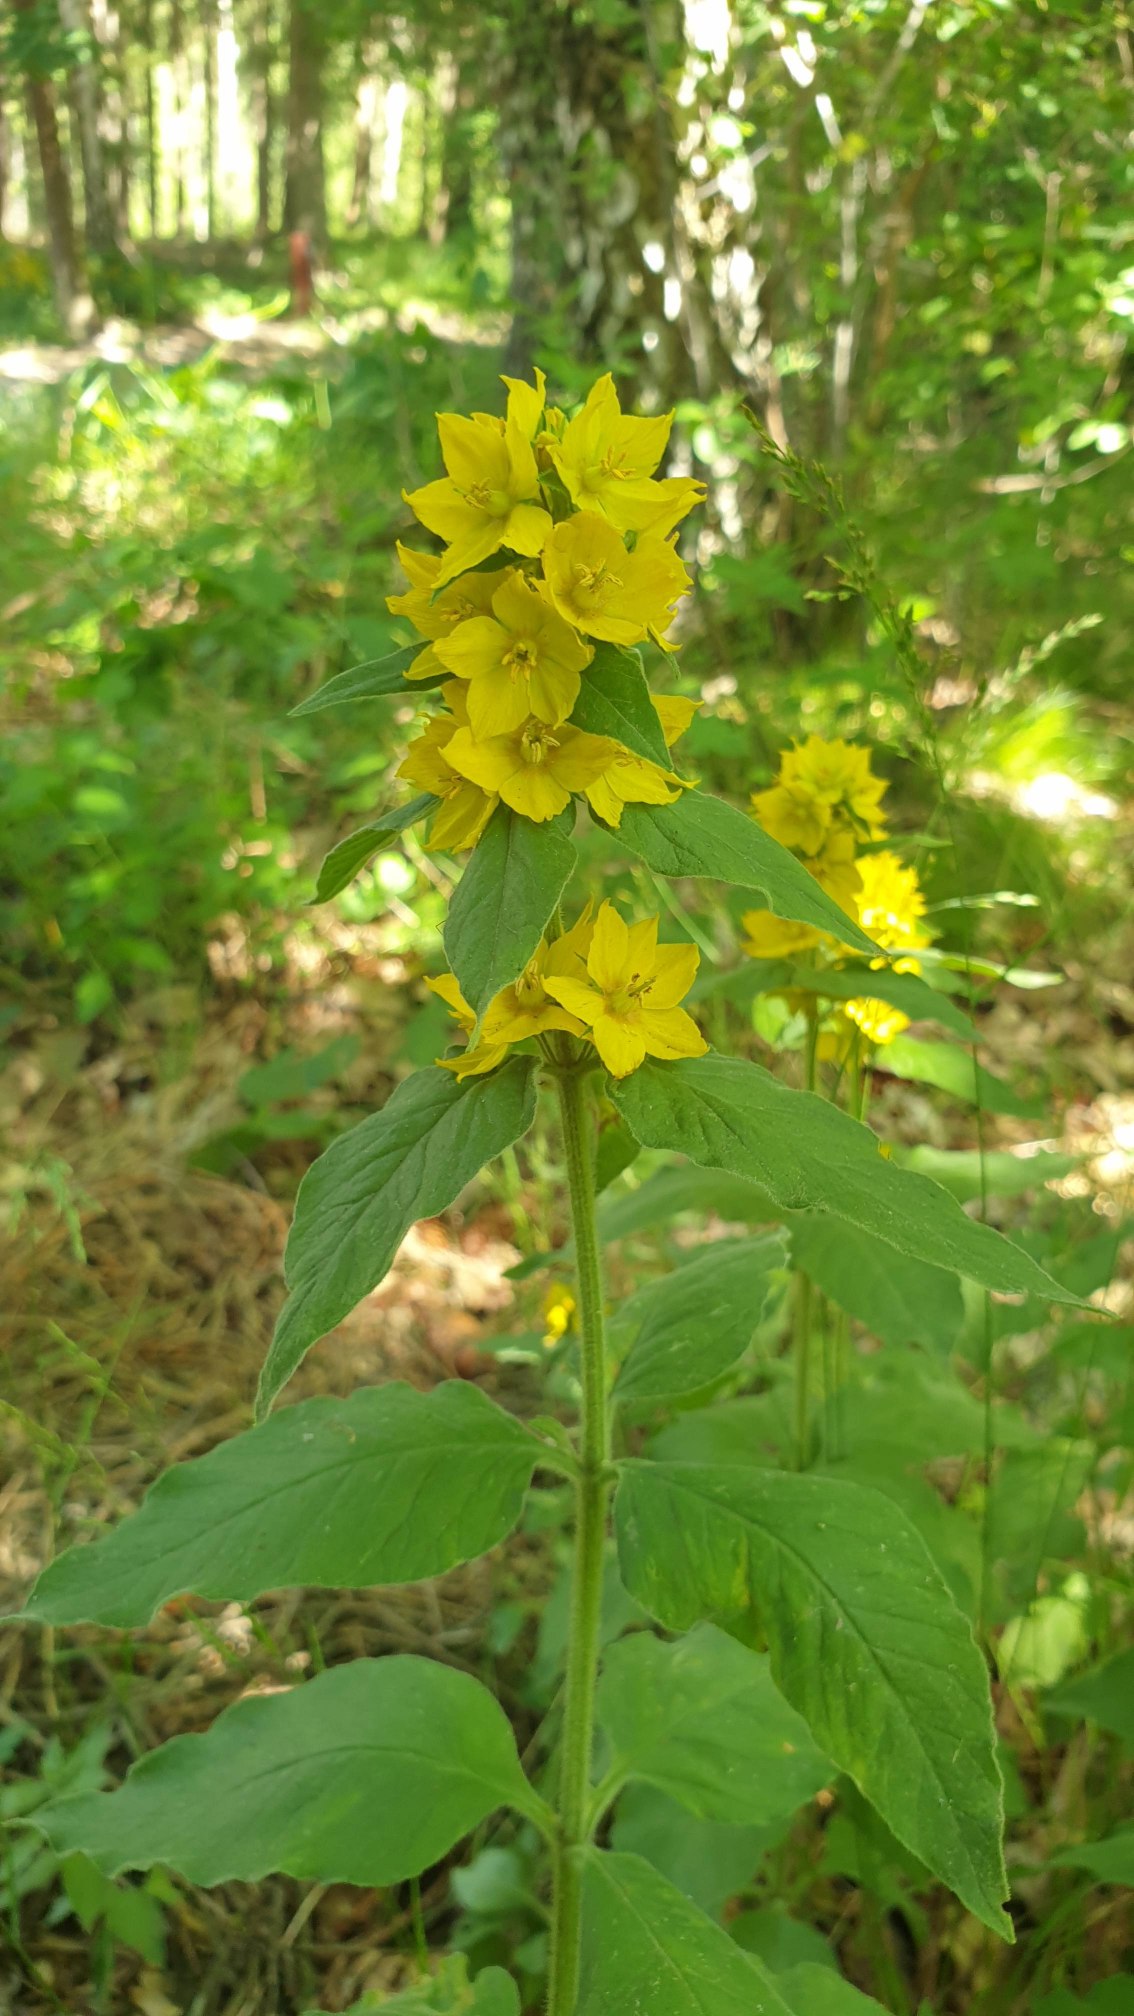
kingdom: Plantae
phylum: Tracheophyta
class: Magnoliopsida
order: Ericales
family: Primulaceae
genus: Lysimachia
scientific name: Lysimachia punctata
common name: Prikbladet fredløs
